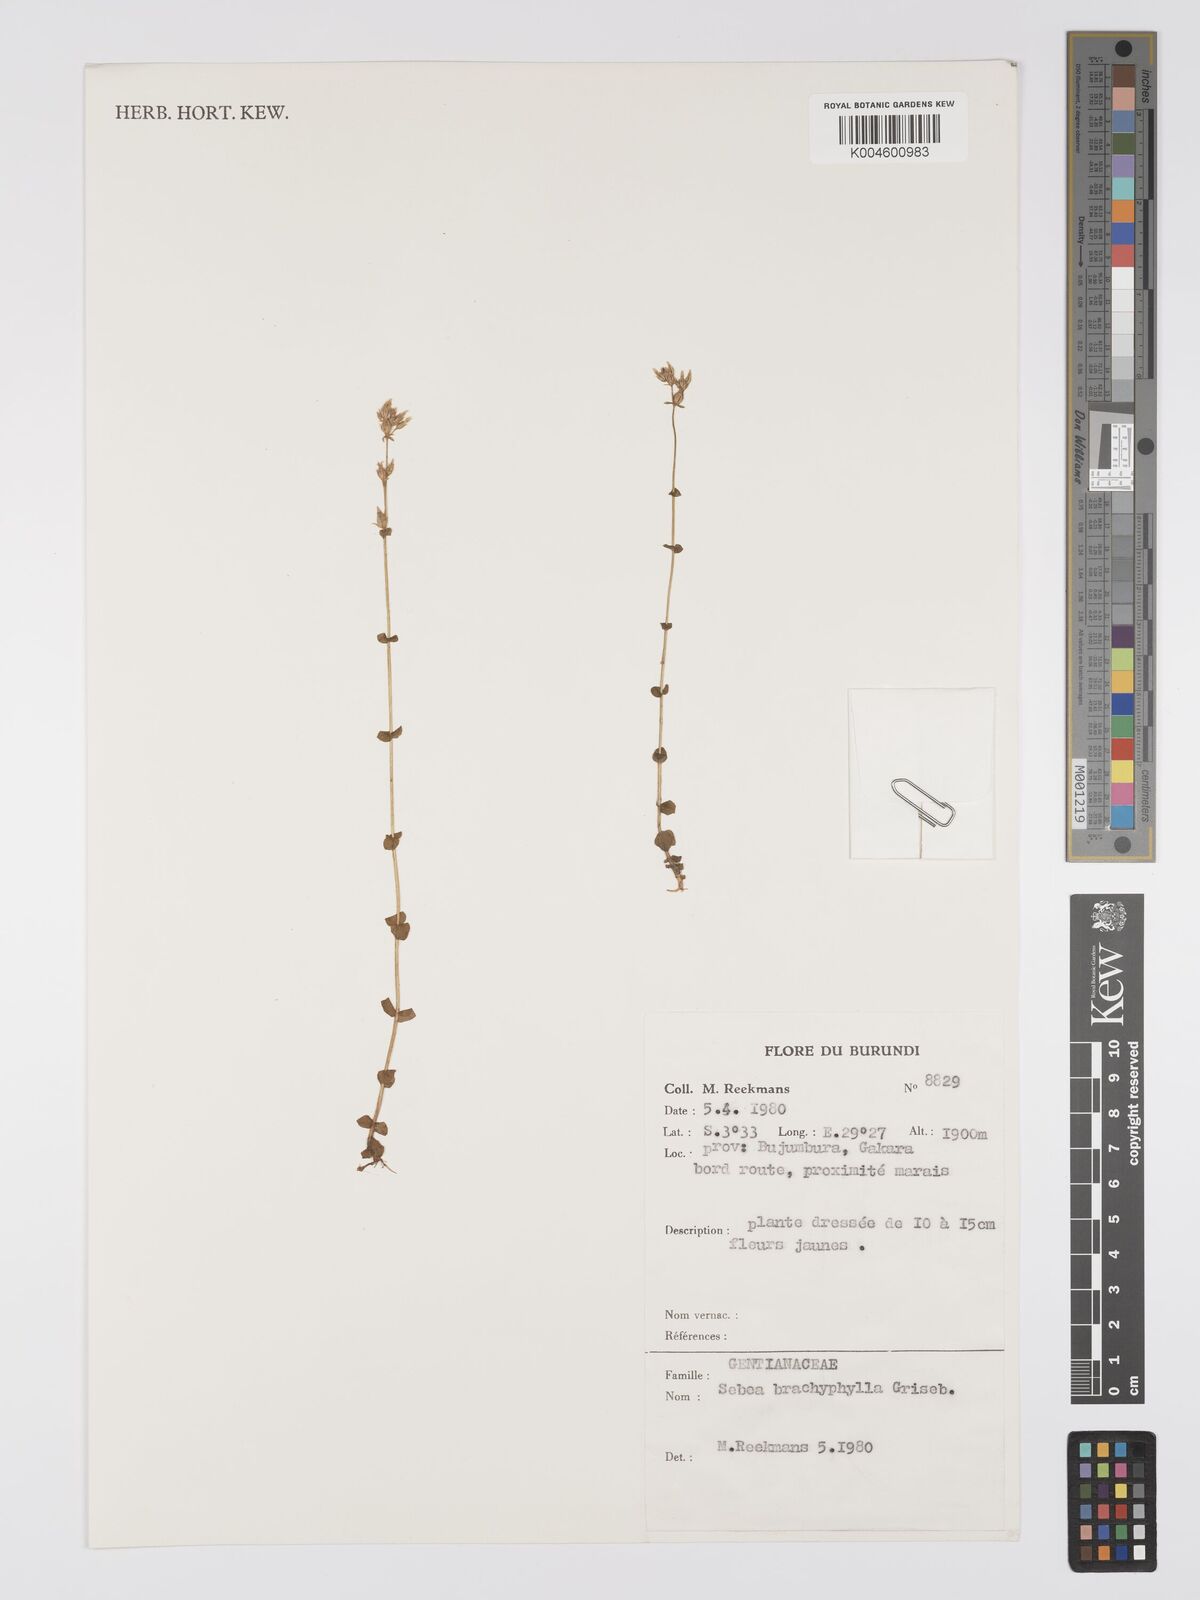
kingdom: Plantae
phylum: Tracheophyta
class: Magnoliopsida
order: Gentianales
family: Gentianaceae
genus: Sebaea
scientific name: Sebaea brachyphylla
